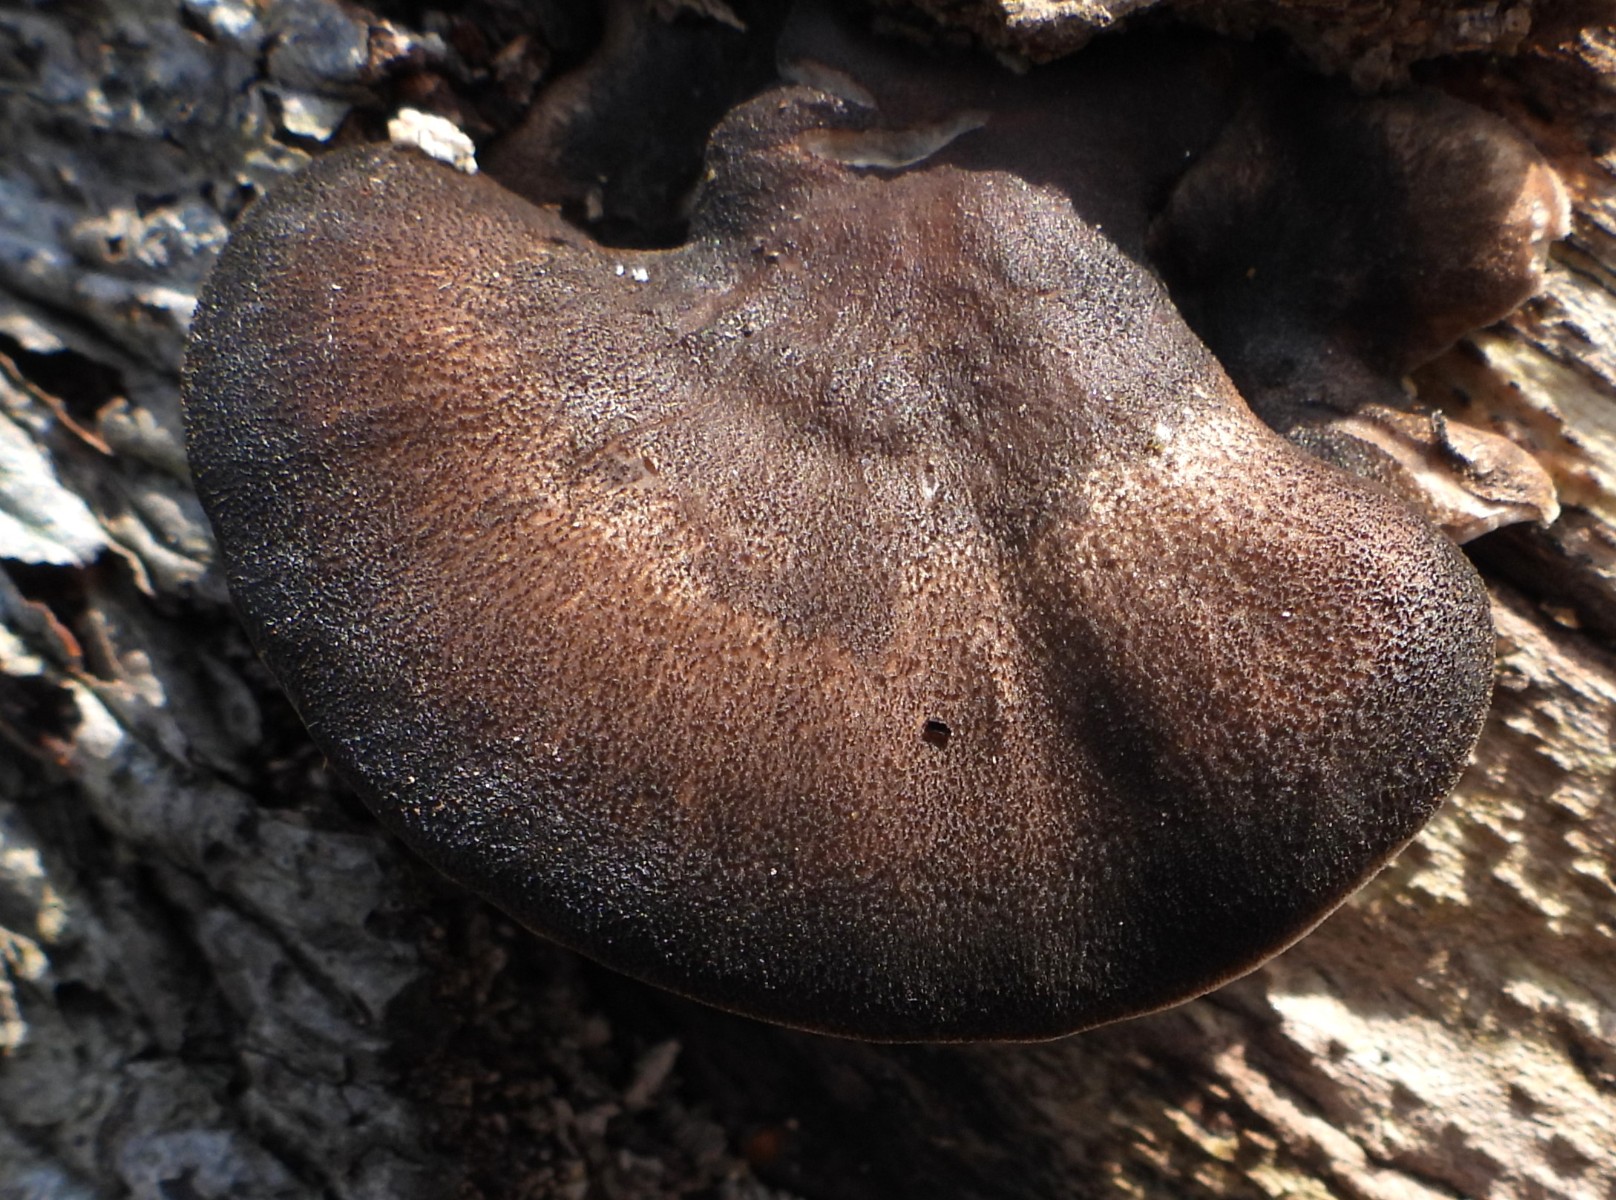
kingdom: Fungi
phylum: Basidiomycota
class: Agaricomycetes
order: Polyporales
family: Polyporaceae
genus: Lentinus
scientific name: Lentinus brumalis
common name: vinter-stilkporesvamp
